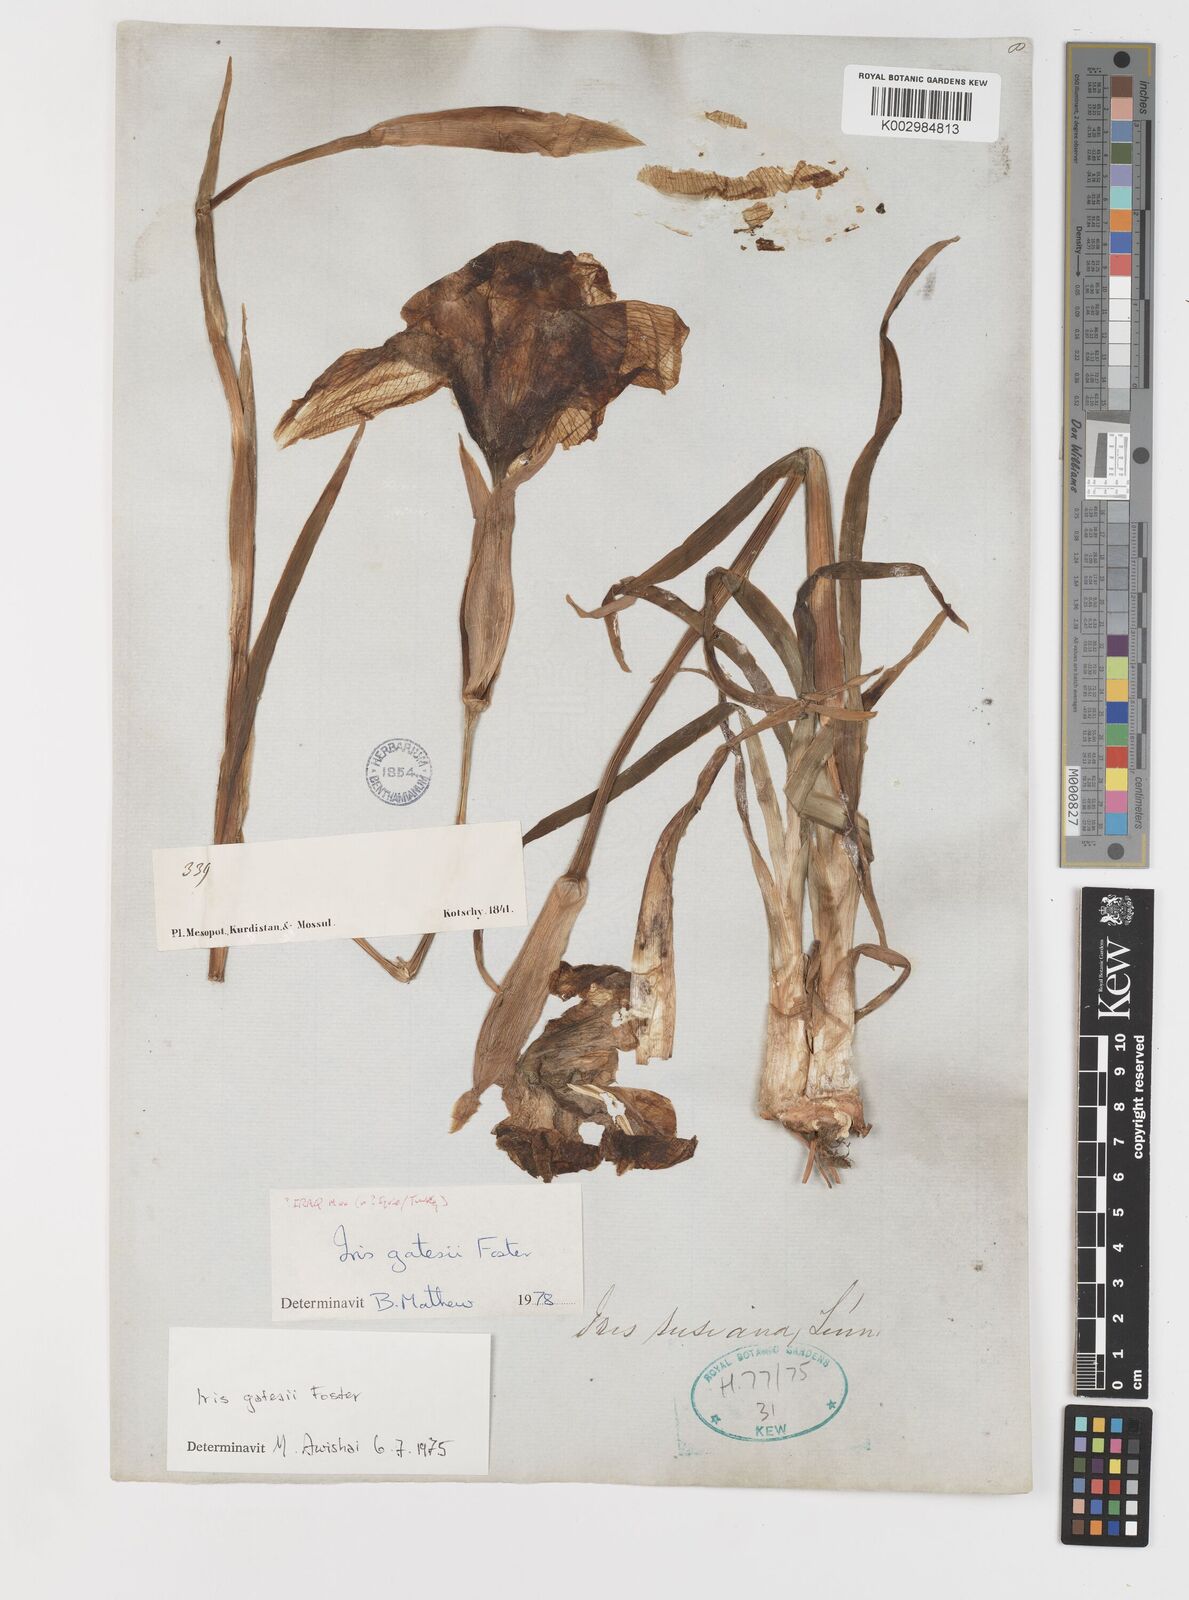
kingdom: Plantae
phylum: Tracheophyta
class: Liliopsida
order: Asparagales
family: Iridaceae
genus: Iris
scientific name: Iris gatesii
